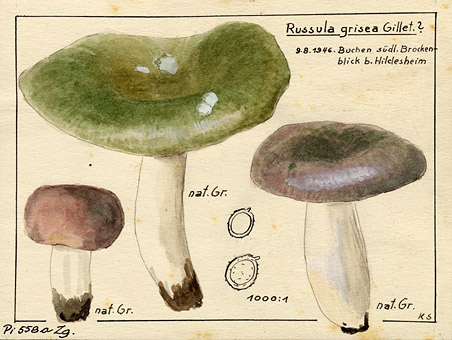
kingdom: Fungi
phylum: Basidiomycota
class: Agaricomycetes
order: Russulales
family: Russulaceae
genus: Russula
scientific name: Russula grisea
